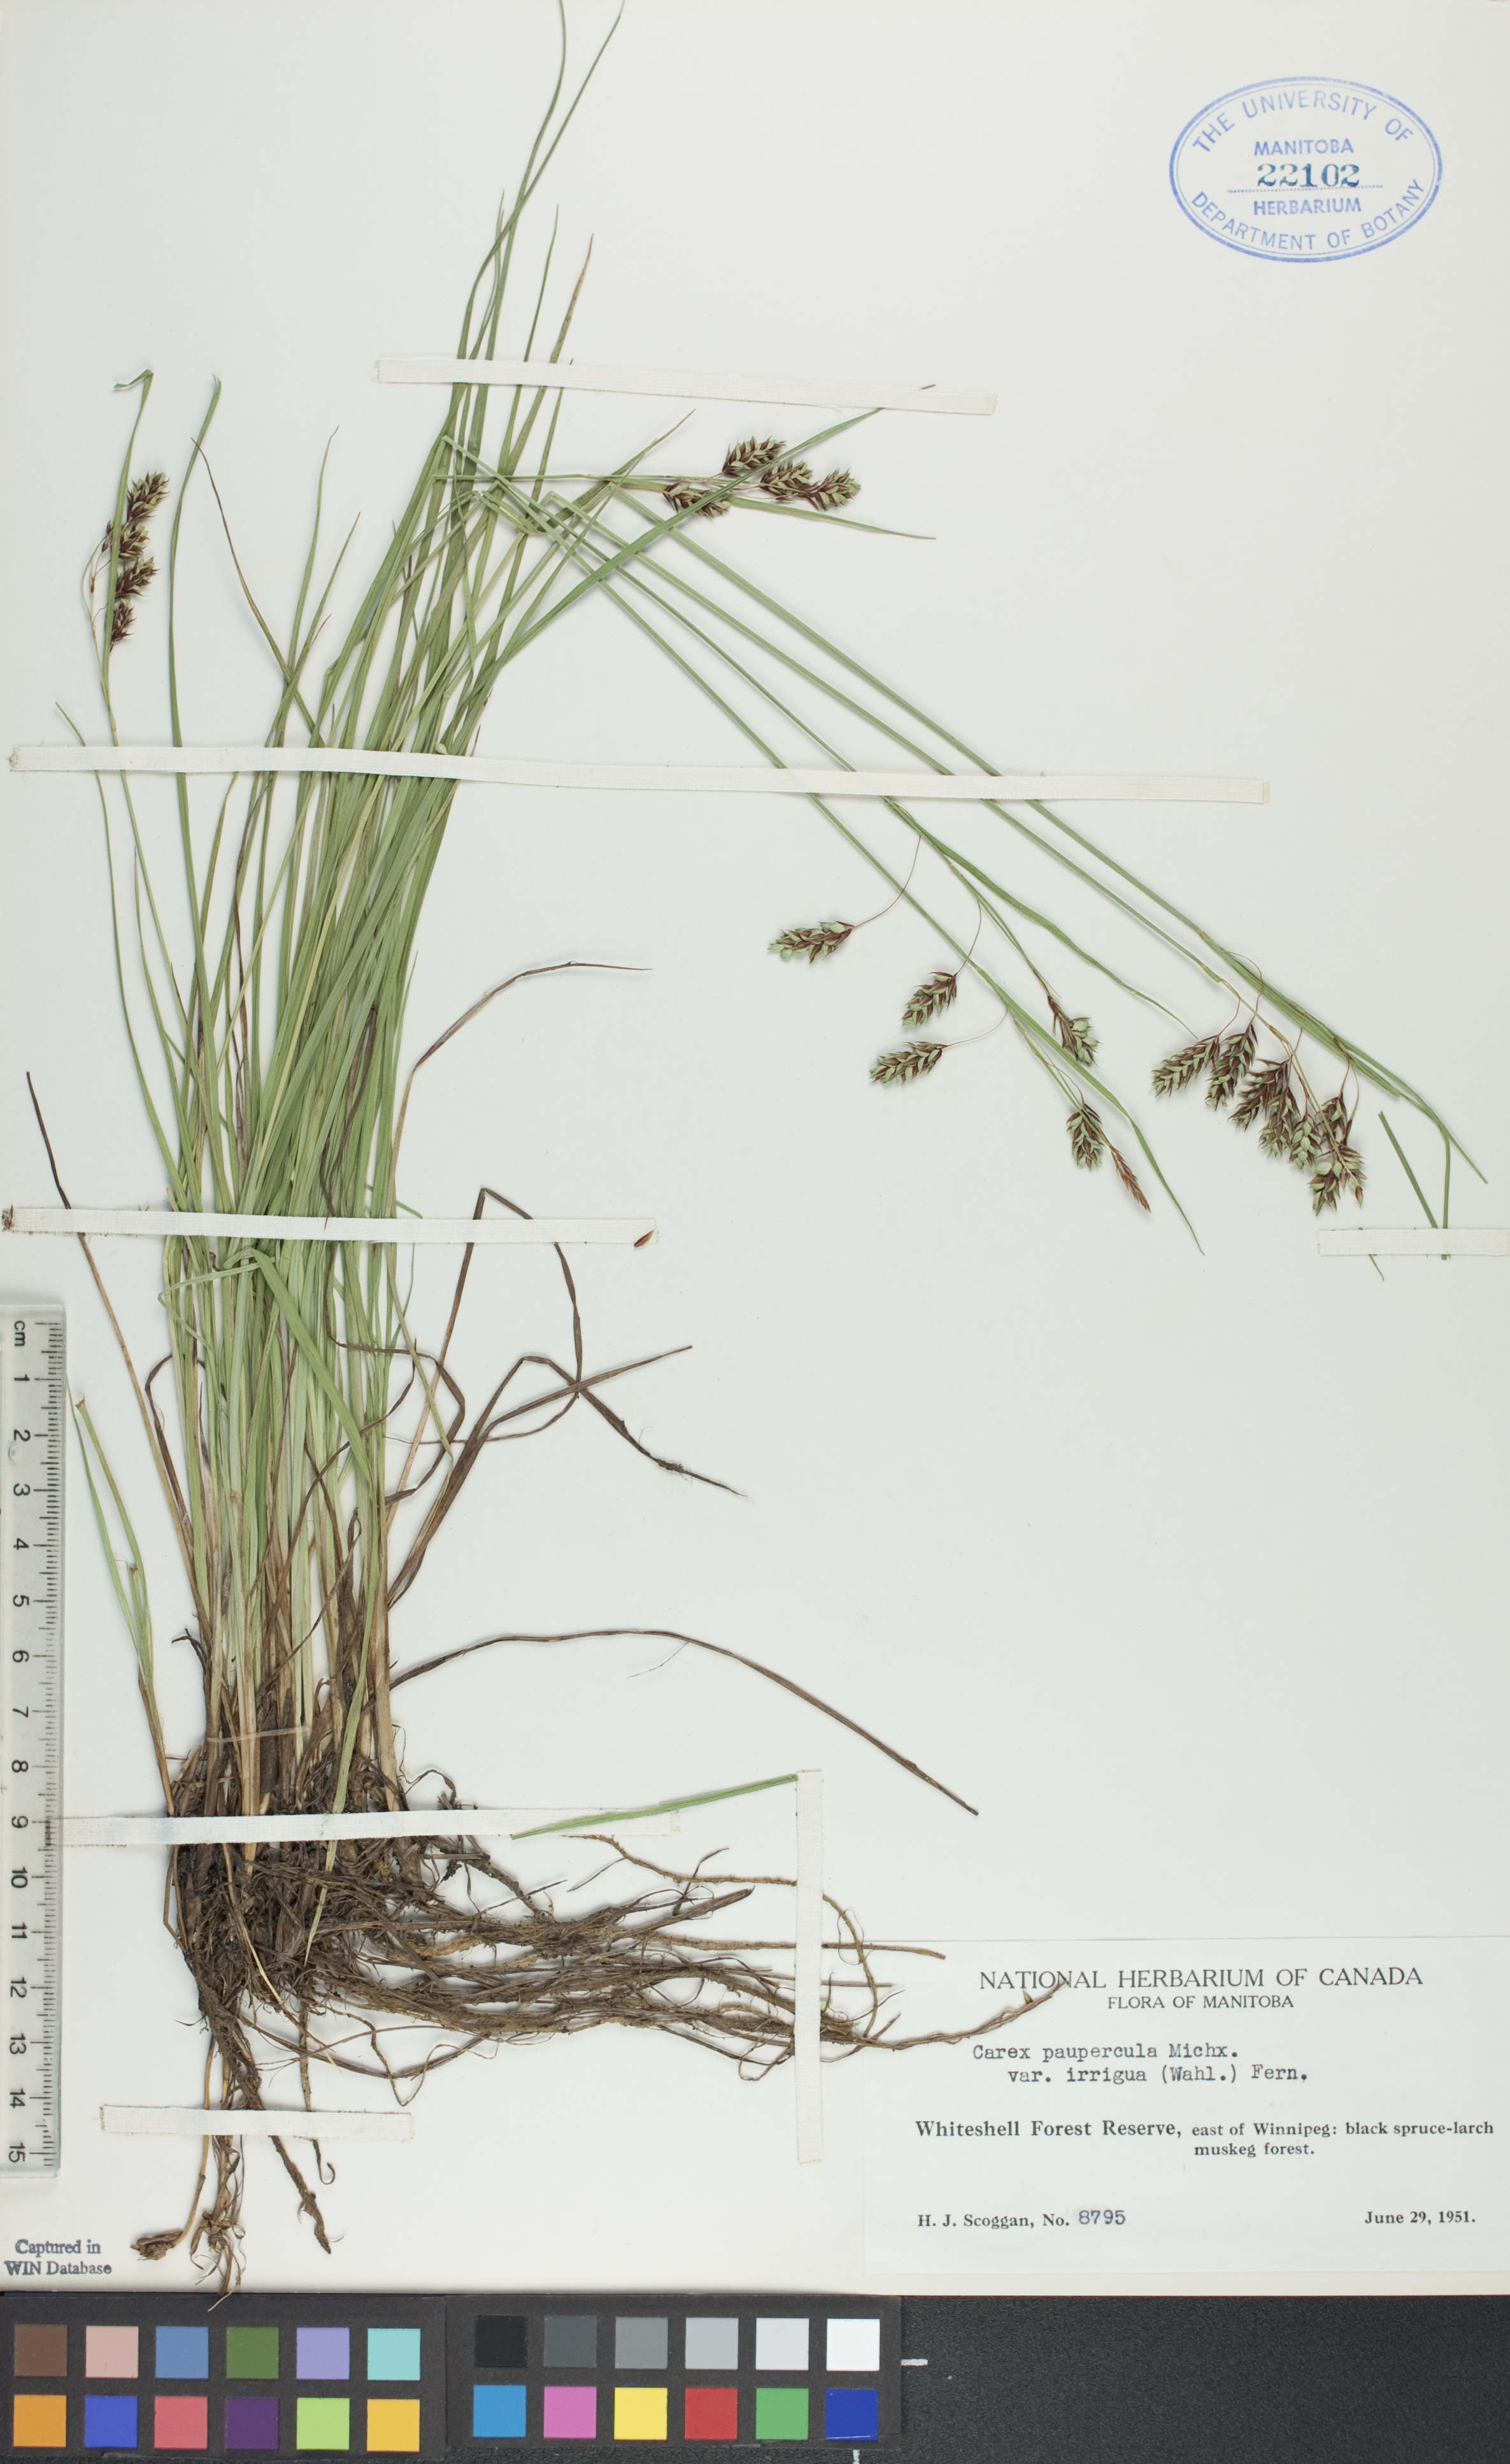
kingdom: Plantae
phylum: Tracheophyta
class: Liliopsida
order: Poales
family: Cyperaceae
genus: Carex
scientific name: Carex magellanica
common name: Bog sedge
